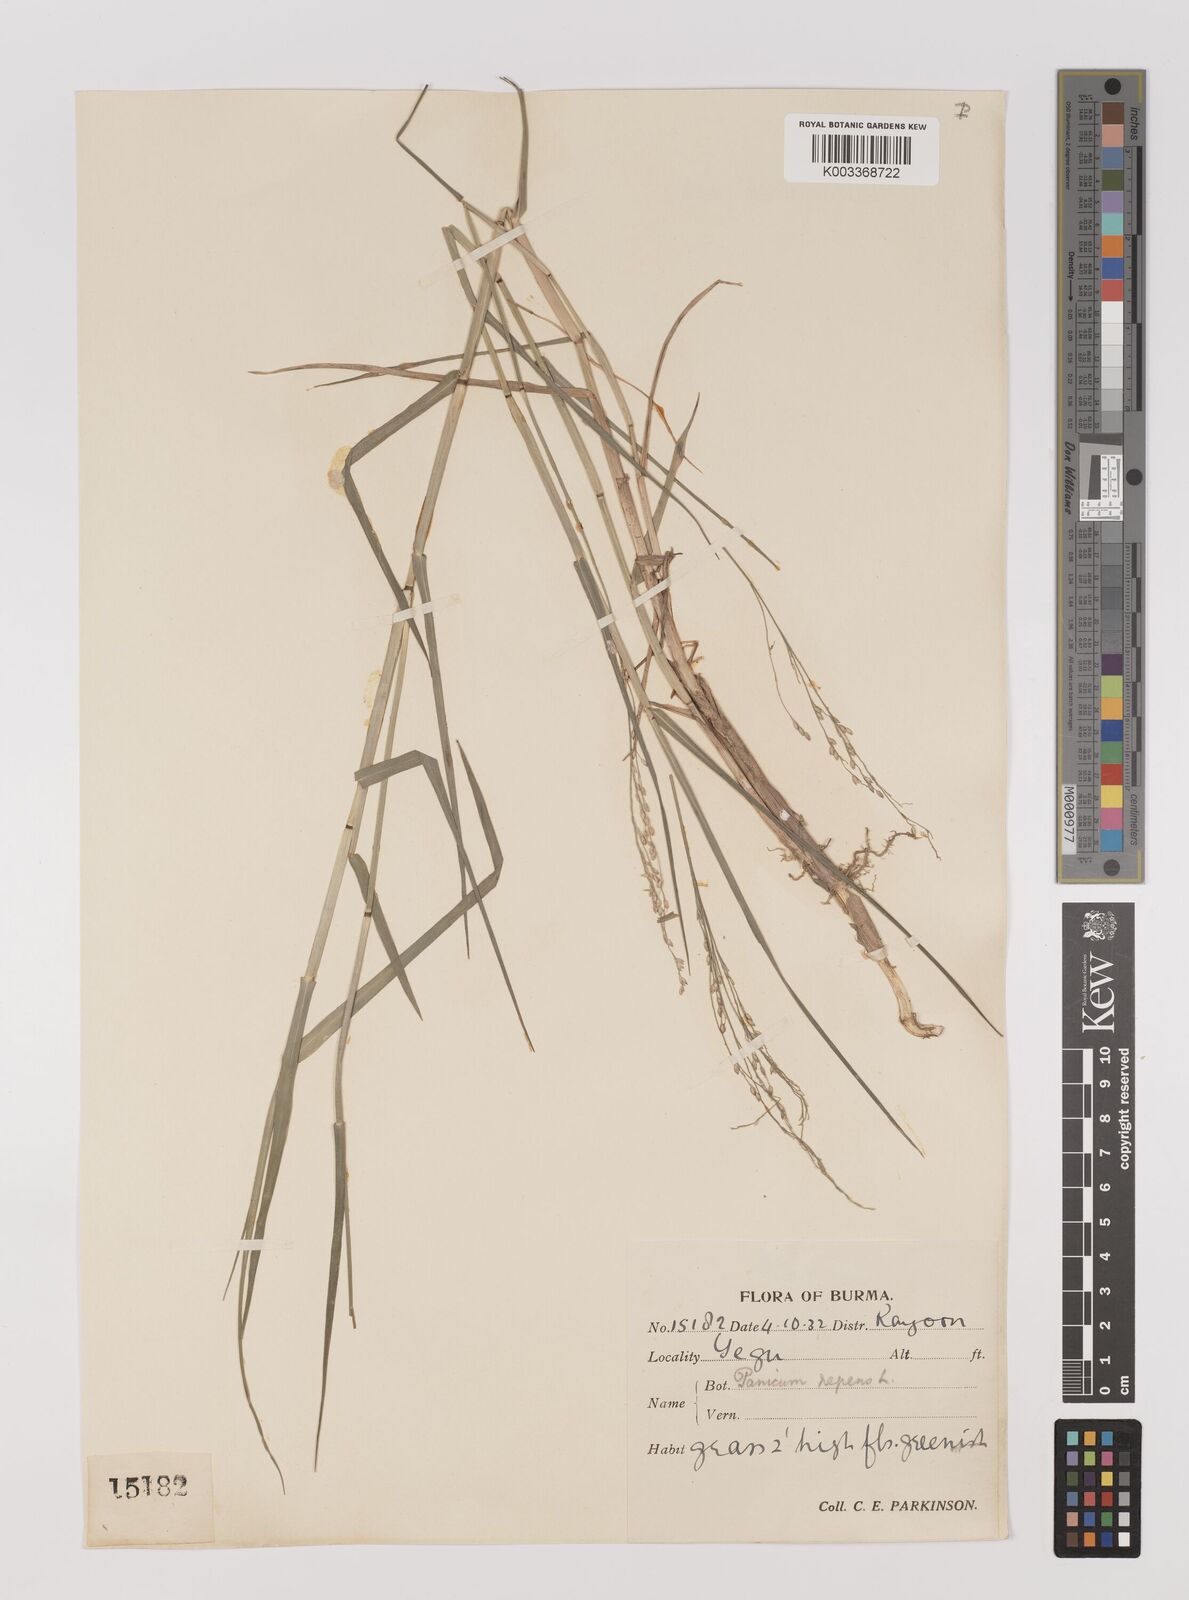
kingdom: Plantae
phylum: Tracheophyta
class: Liliopsida
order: Poales
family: Poaceae
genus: Panicum
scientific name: Panicum repens
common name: Torpedo grass
